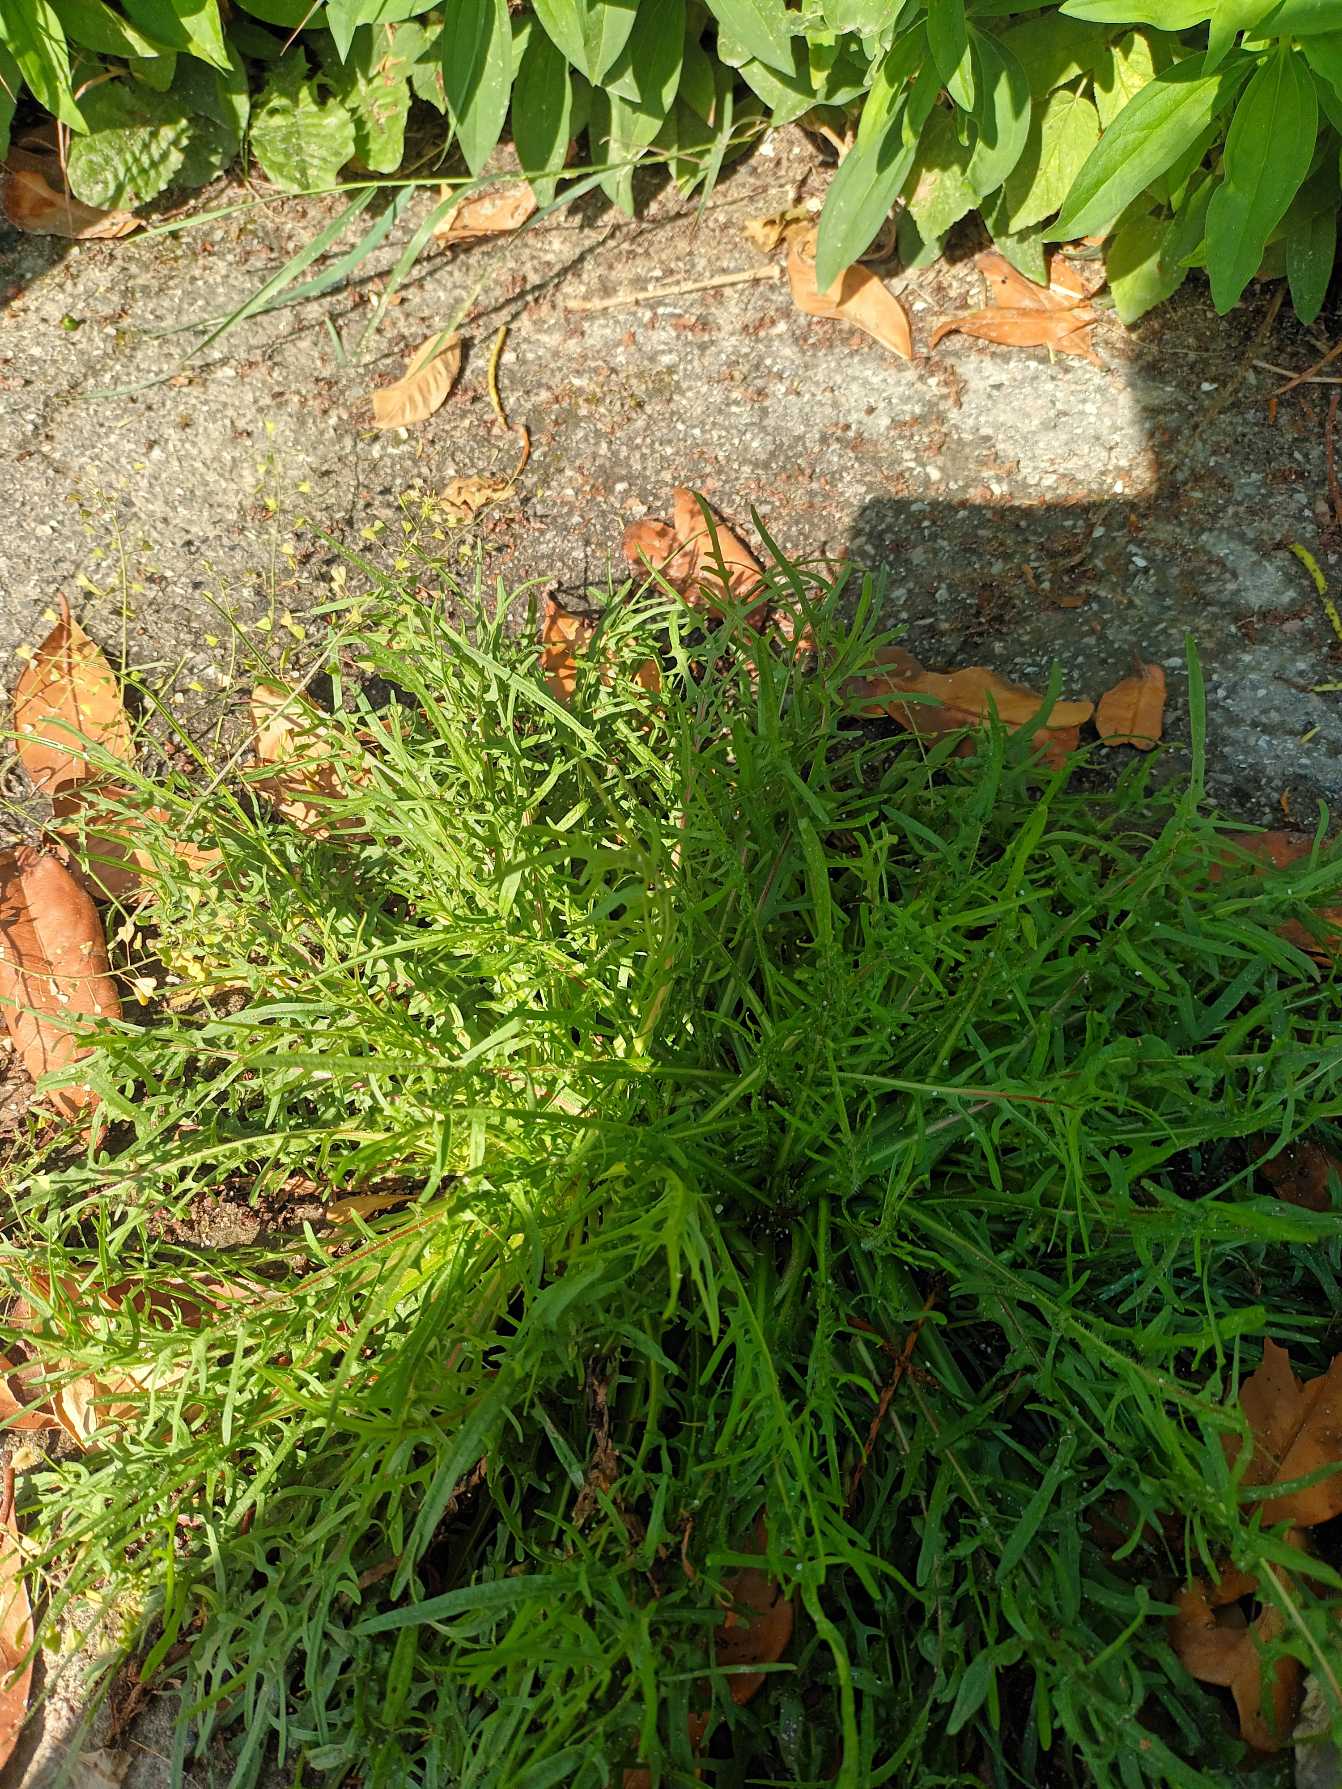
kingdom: Plantae
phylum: Tracheophyta
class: Magnoliopsida
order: Asterales
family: Asteraceae
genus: Scorzoneroides
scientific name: Scorzoneroides autumnalis
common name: Høst-borst
